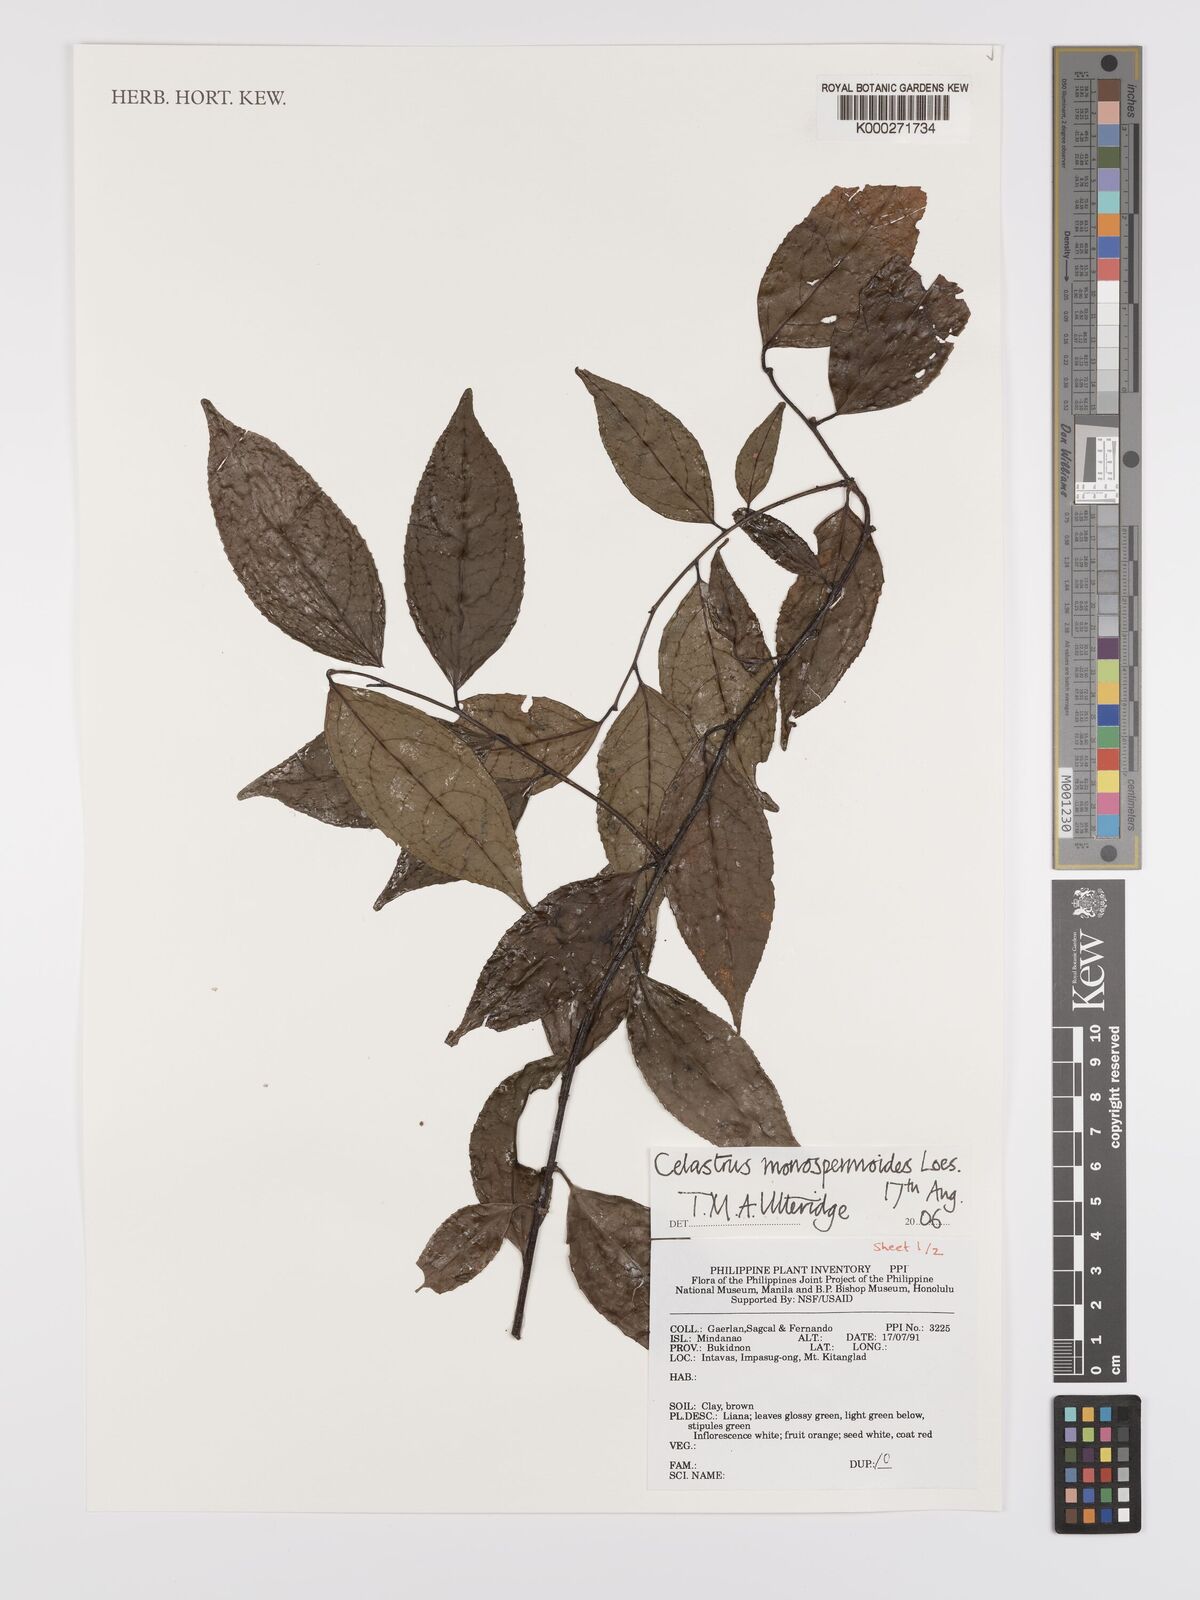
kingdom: Plantae
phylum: Tracheophyta
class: Magnoliopsida
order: Celastrales
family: Celastraceae
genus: Celastrus
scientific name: Celastrus monospermoides
